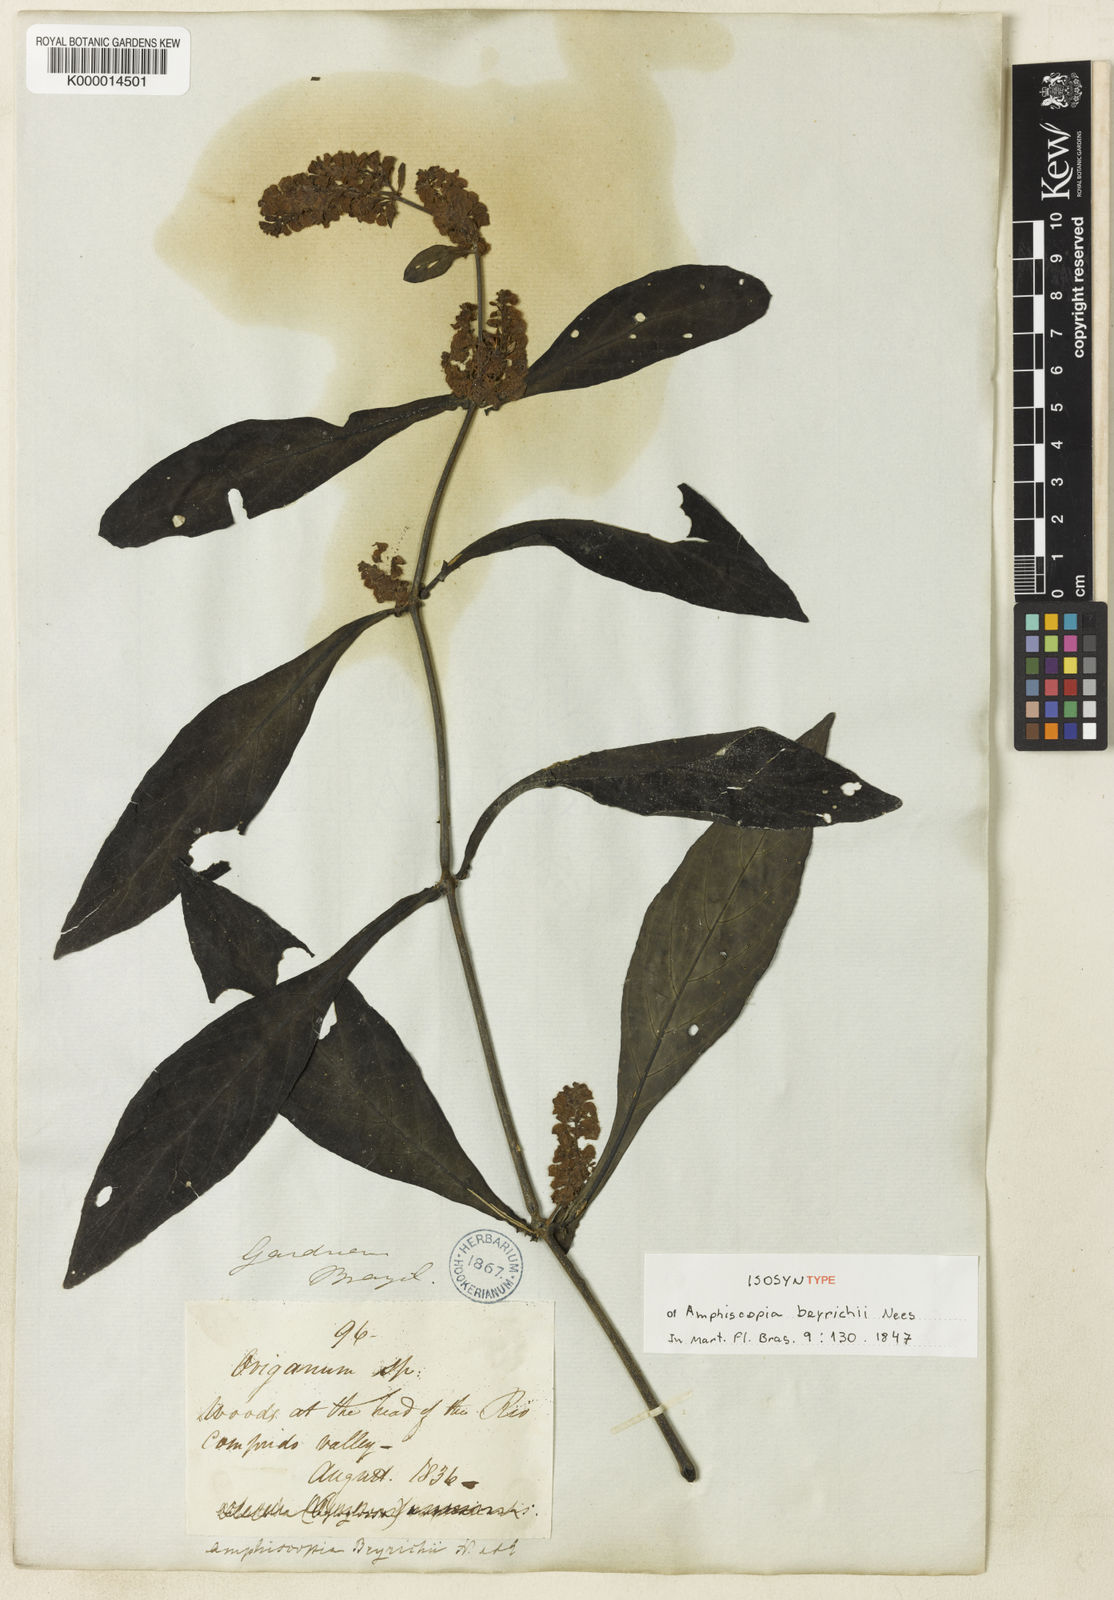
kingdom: Plantae
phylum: Tracheophyta
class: Magnoliopsida
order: Lamiales
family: Acanthaceae
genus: Dianthera
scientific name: Dianthera brasiliensis
